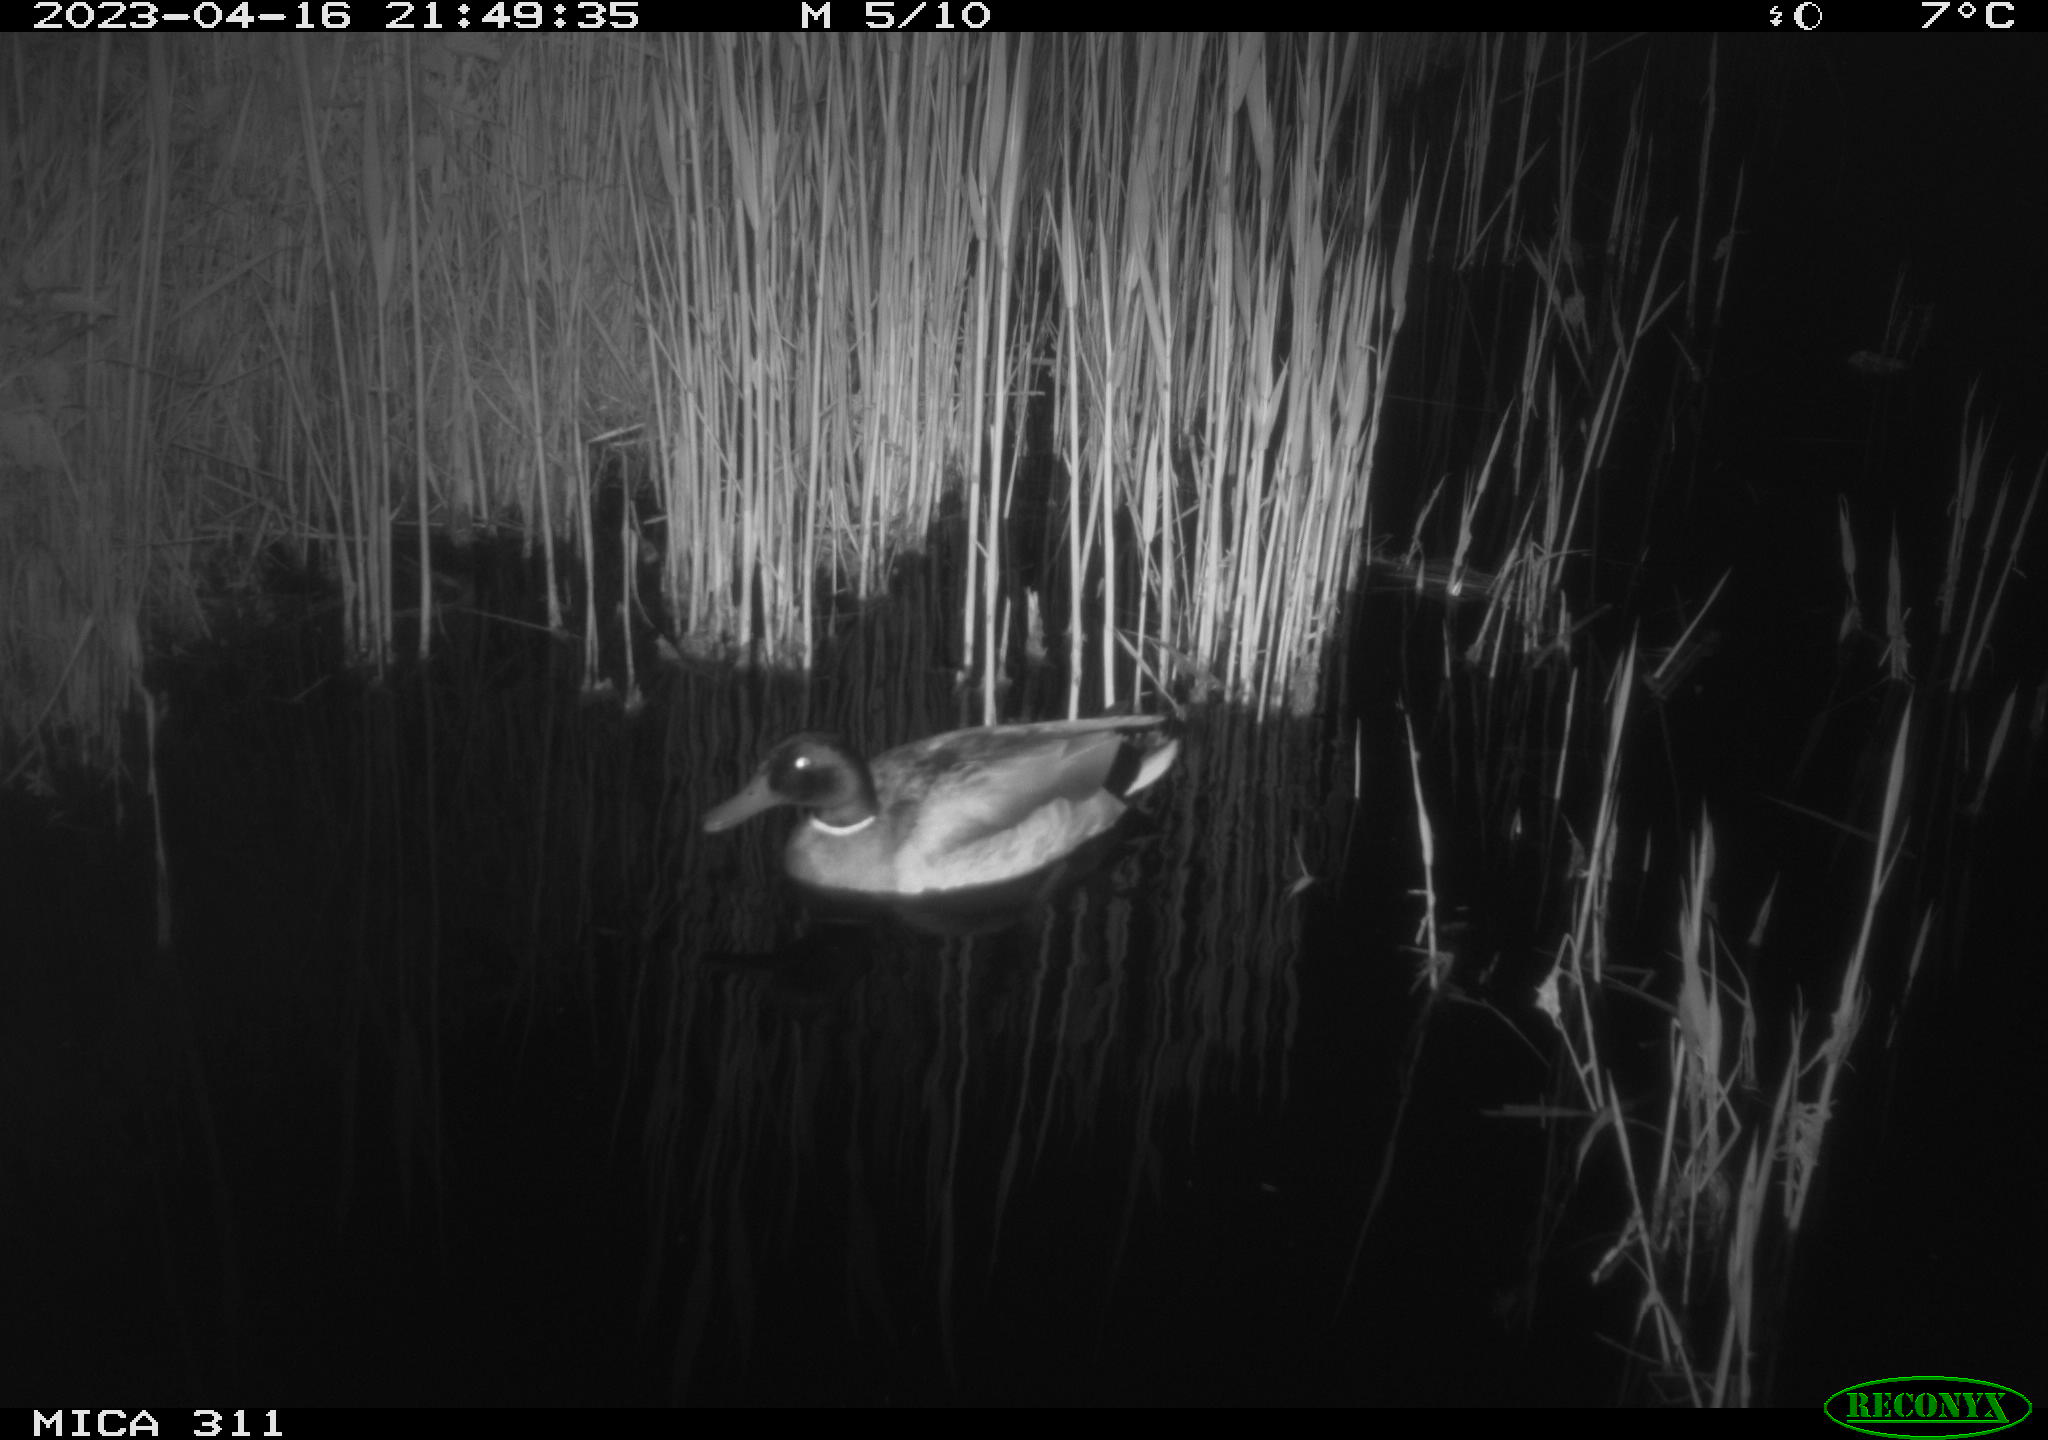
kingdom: Animalia
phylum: Chordata
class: Aves
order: Anseriformes
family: Anatidae
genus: Anas
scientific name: Anas
